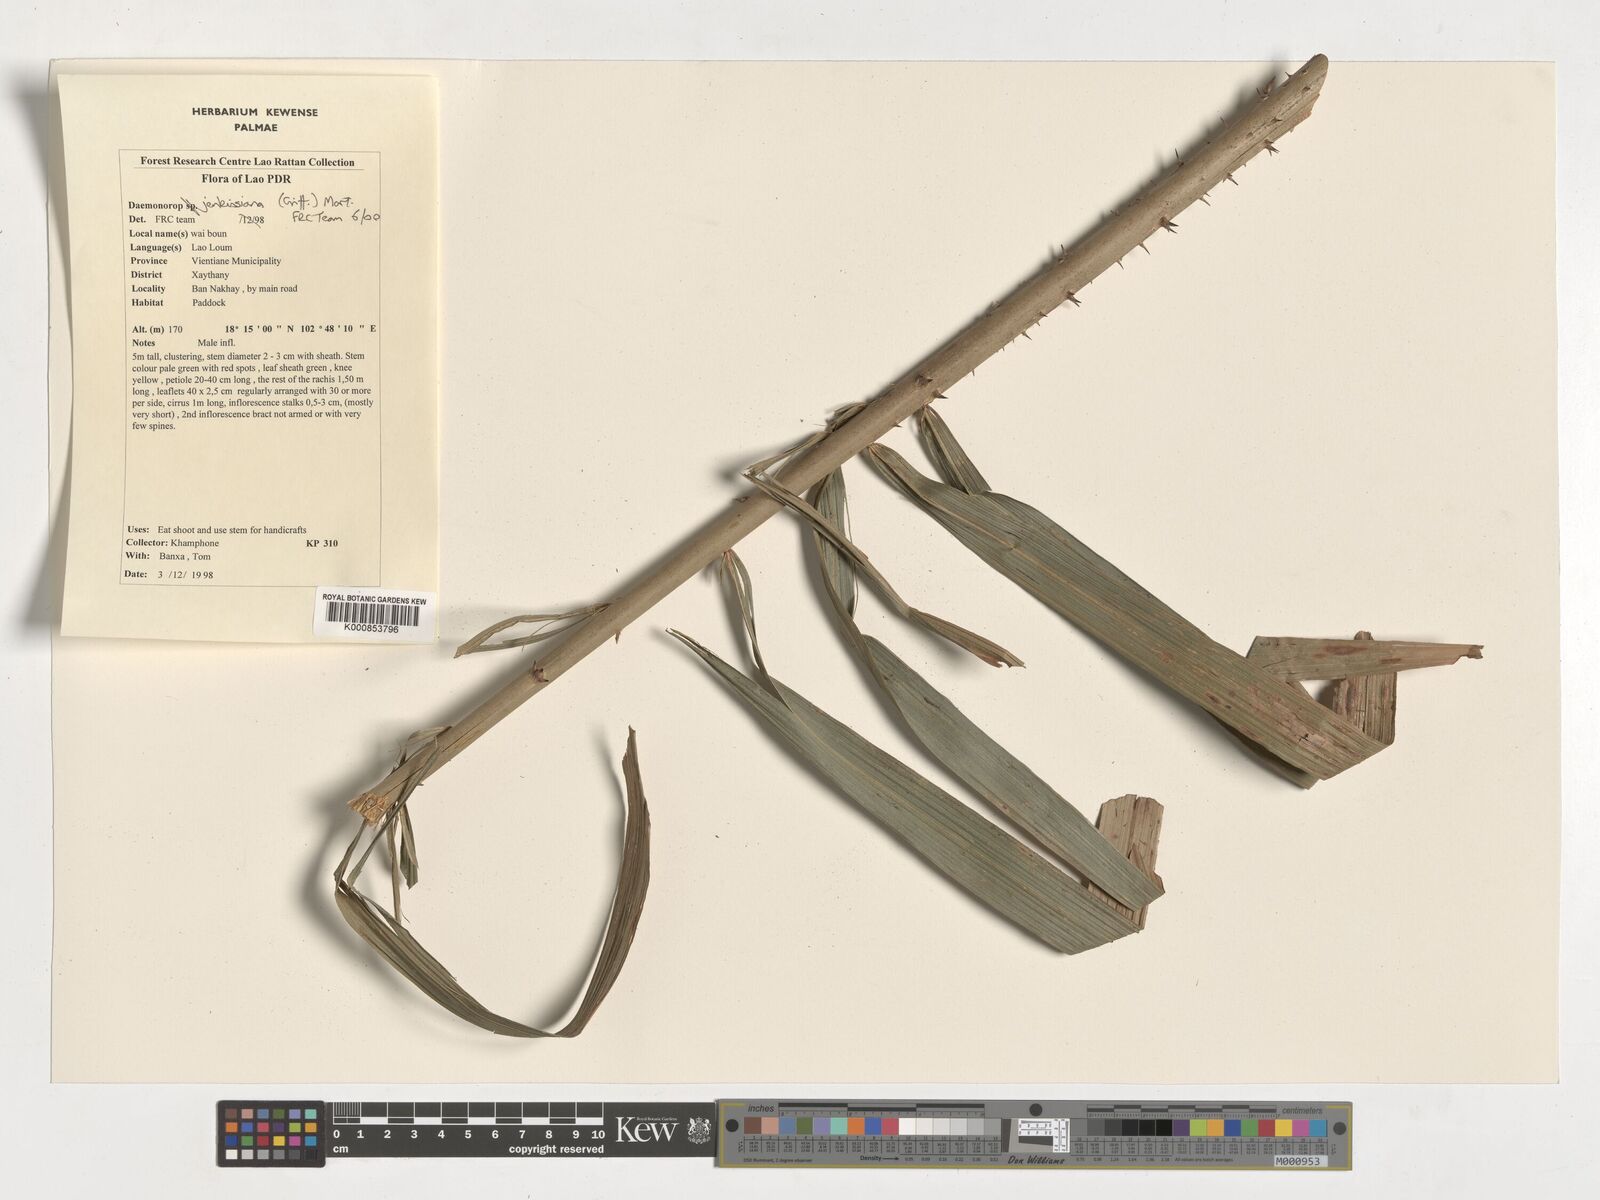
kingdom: Plantae
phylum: Tracheophyta
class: Liliopsida
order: Arecales
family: Arecaceae
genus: Calamus
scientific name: Calamus melanochaetes
